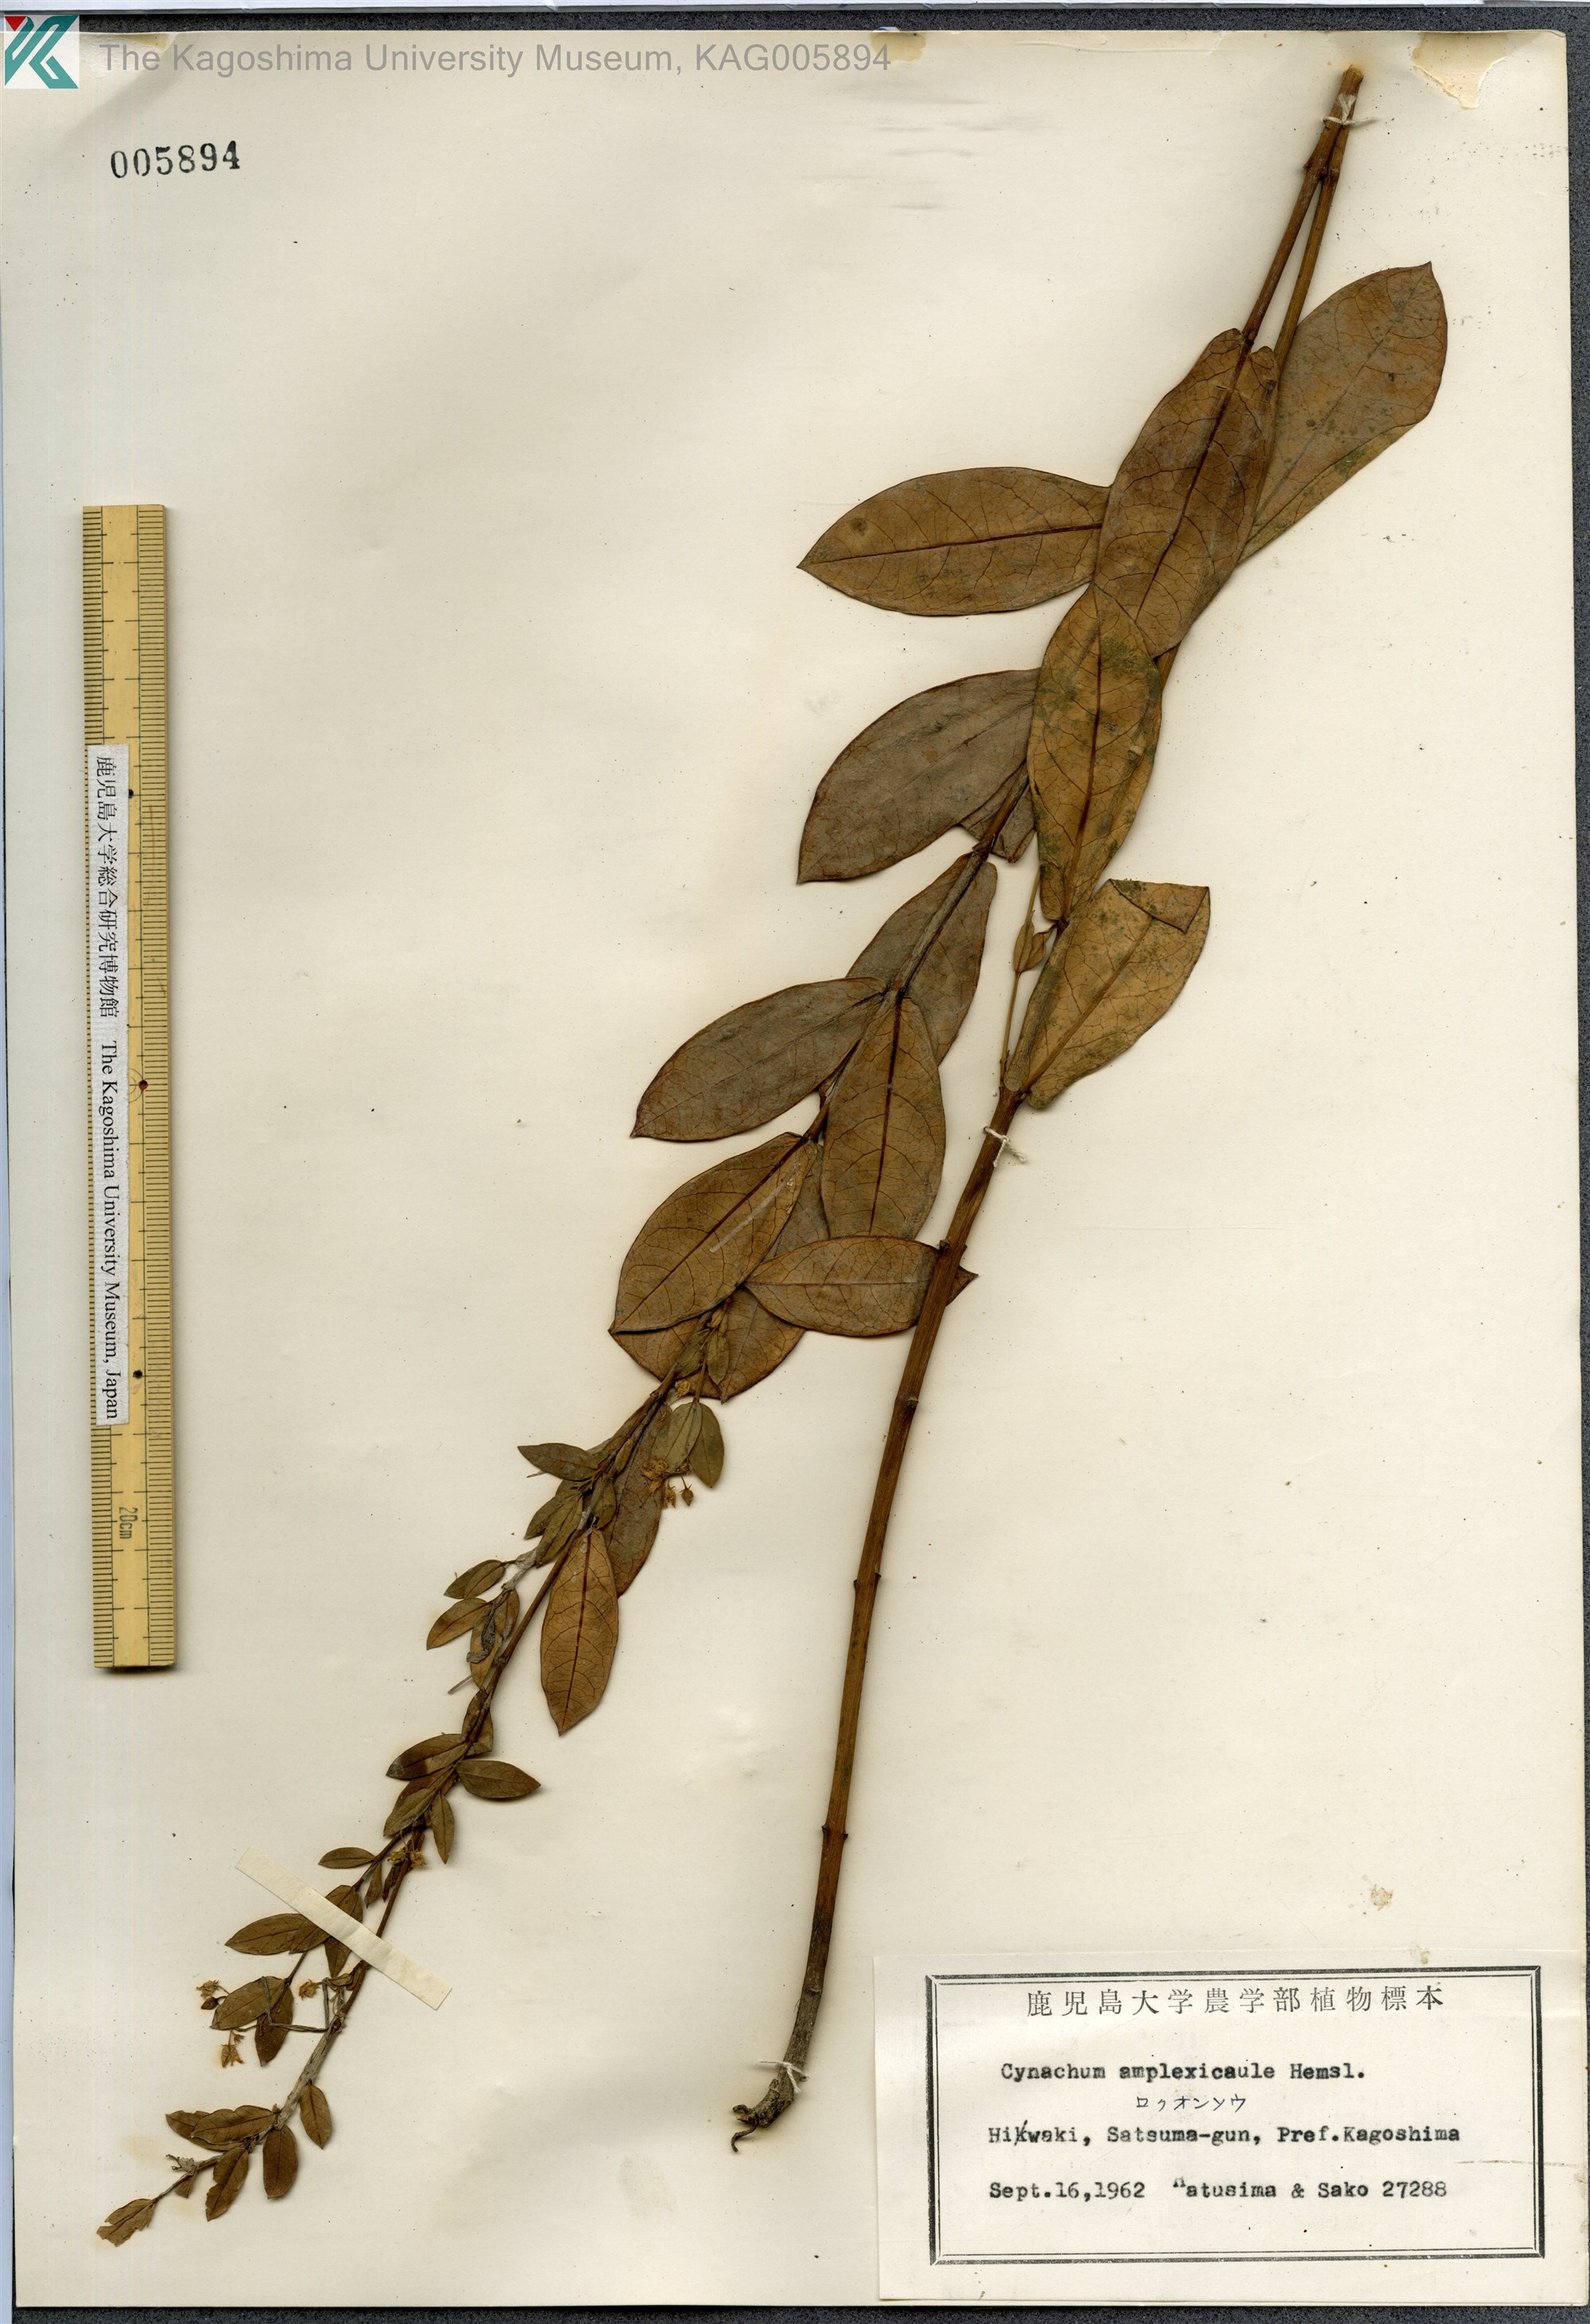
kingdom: Plantae
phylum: Tracheophyta
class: Magnoliopsida
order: Gentianales
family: Apocynaceae
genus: Vincetoxicum
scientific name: Vincetoxicum amplexicaule
